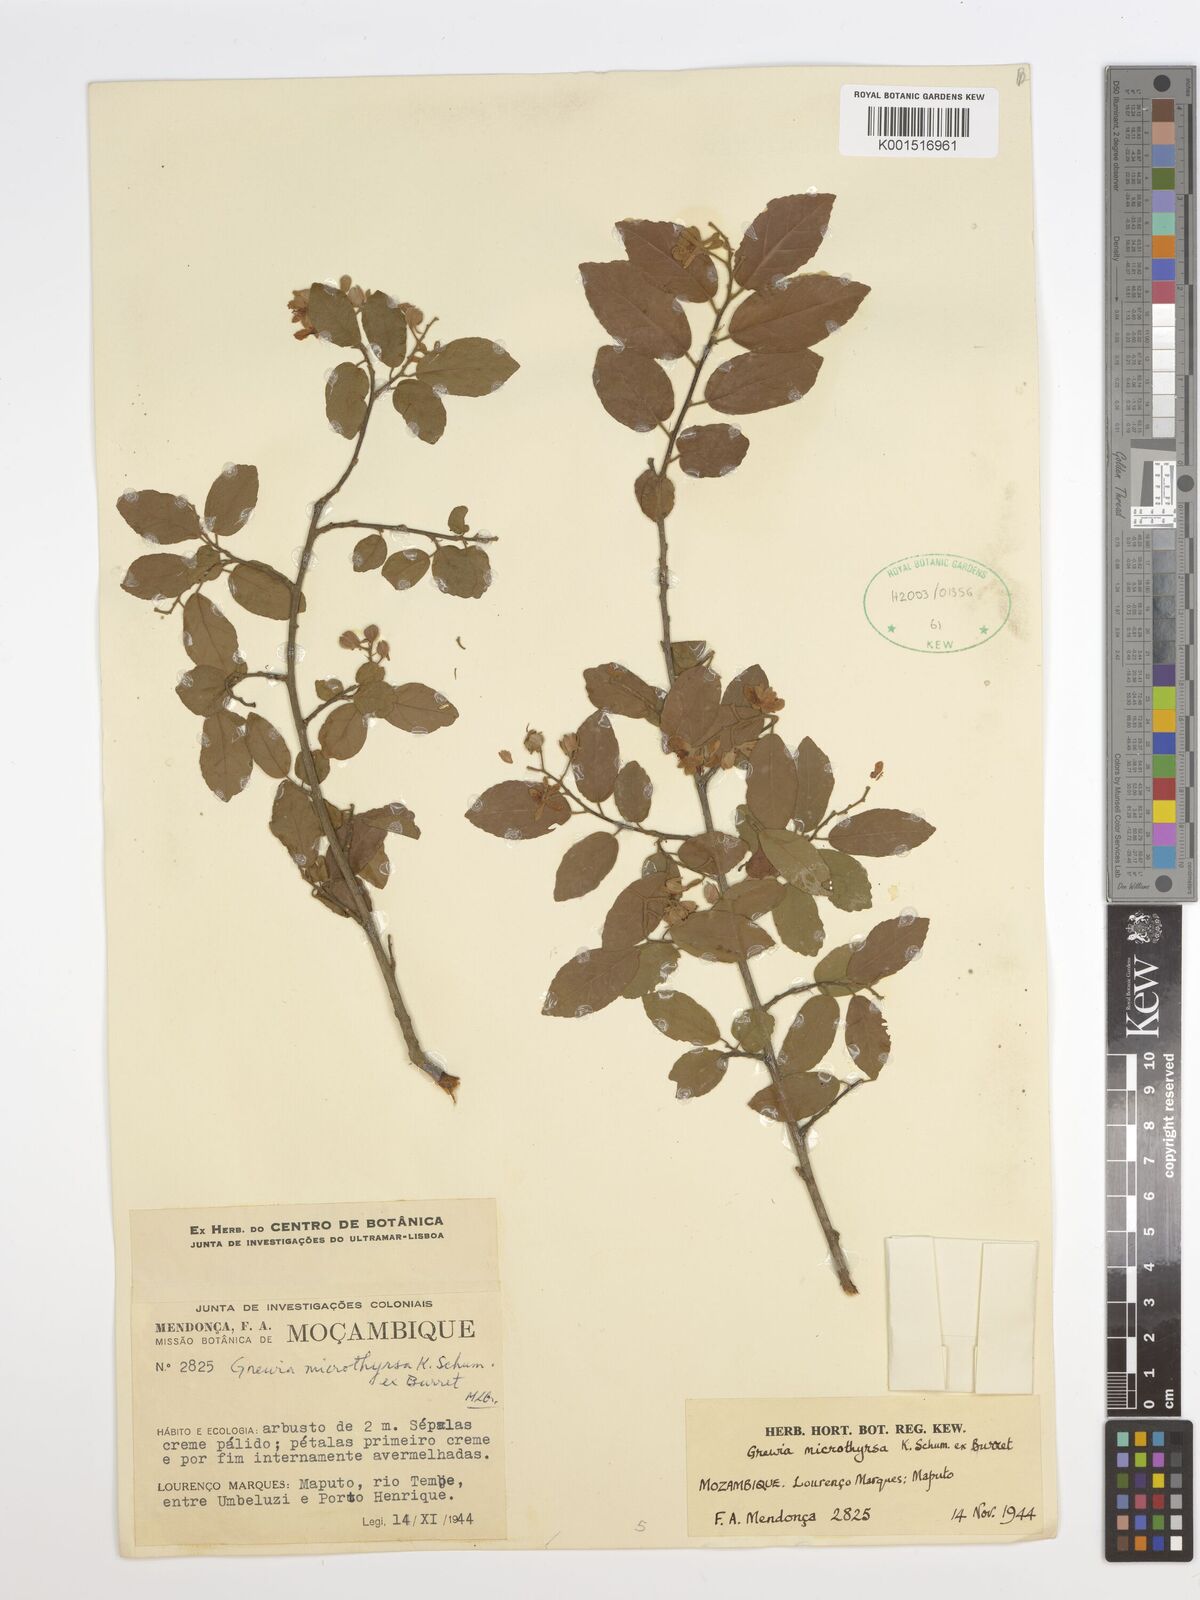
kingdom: Plantae
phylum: Tracheophyta
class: Magnoliopsida
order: Malvales
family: Malvaceae
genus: Microcos
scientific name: Microcos microthyrsa
